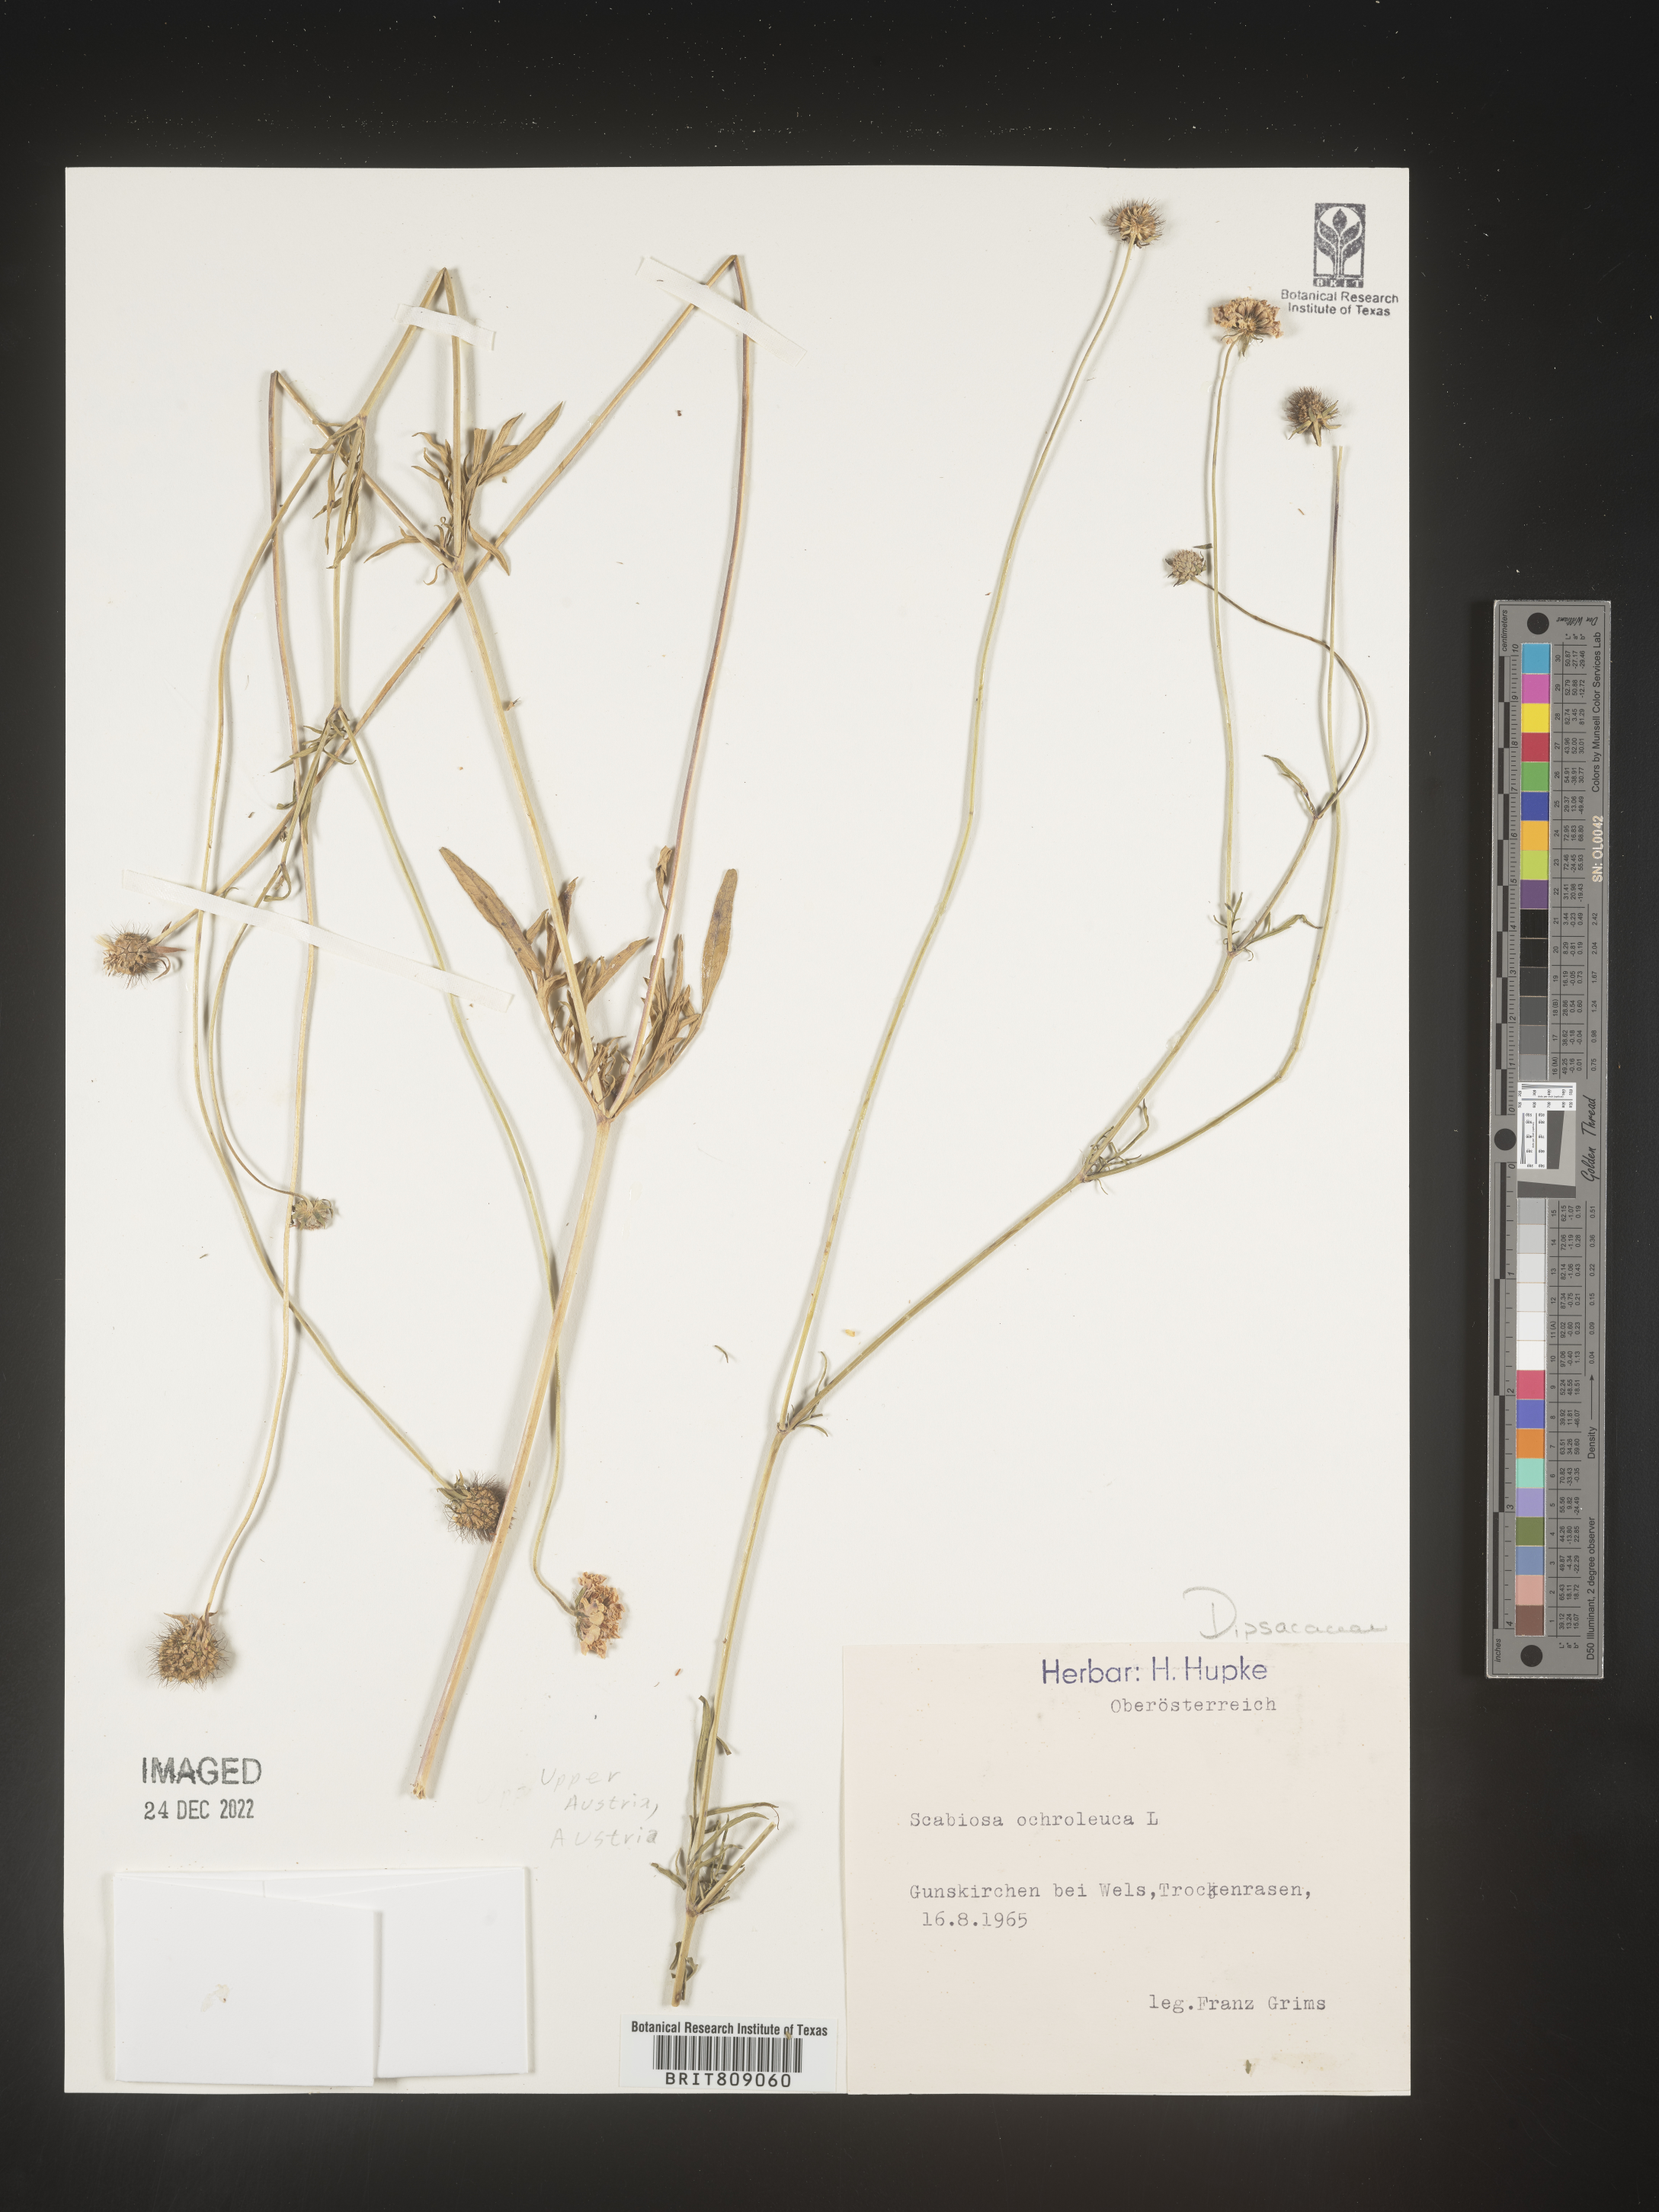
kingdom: Plantae
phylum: Tracheophyta
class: Magnoliopsida
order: Dipsacales
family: Caprifoliaceae
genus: Scabiosa
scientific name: Scabiosa
